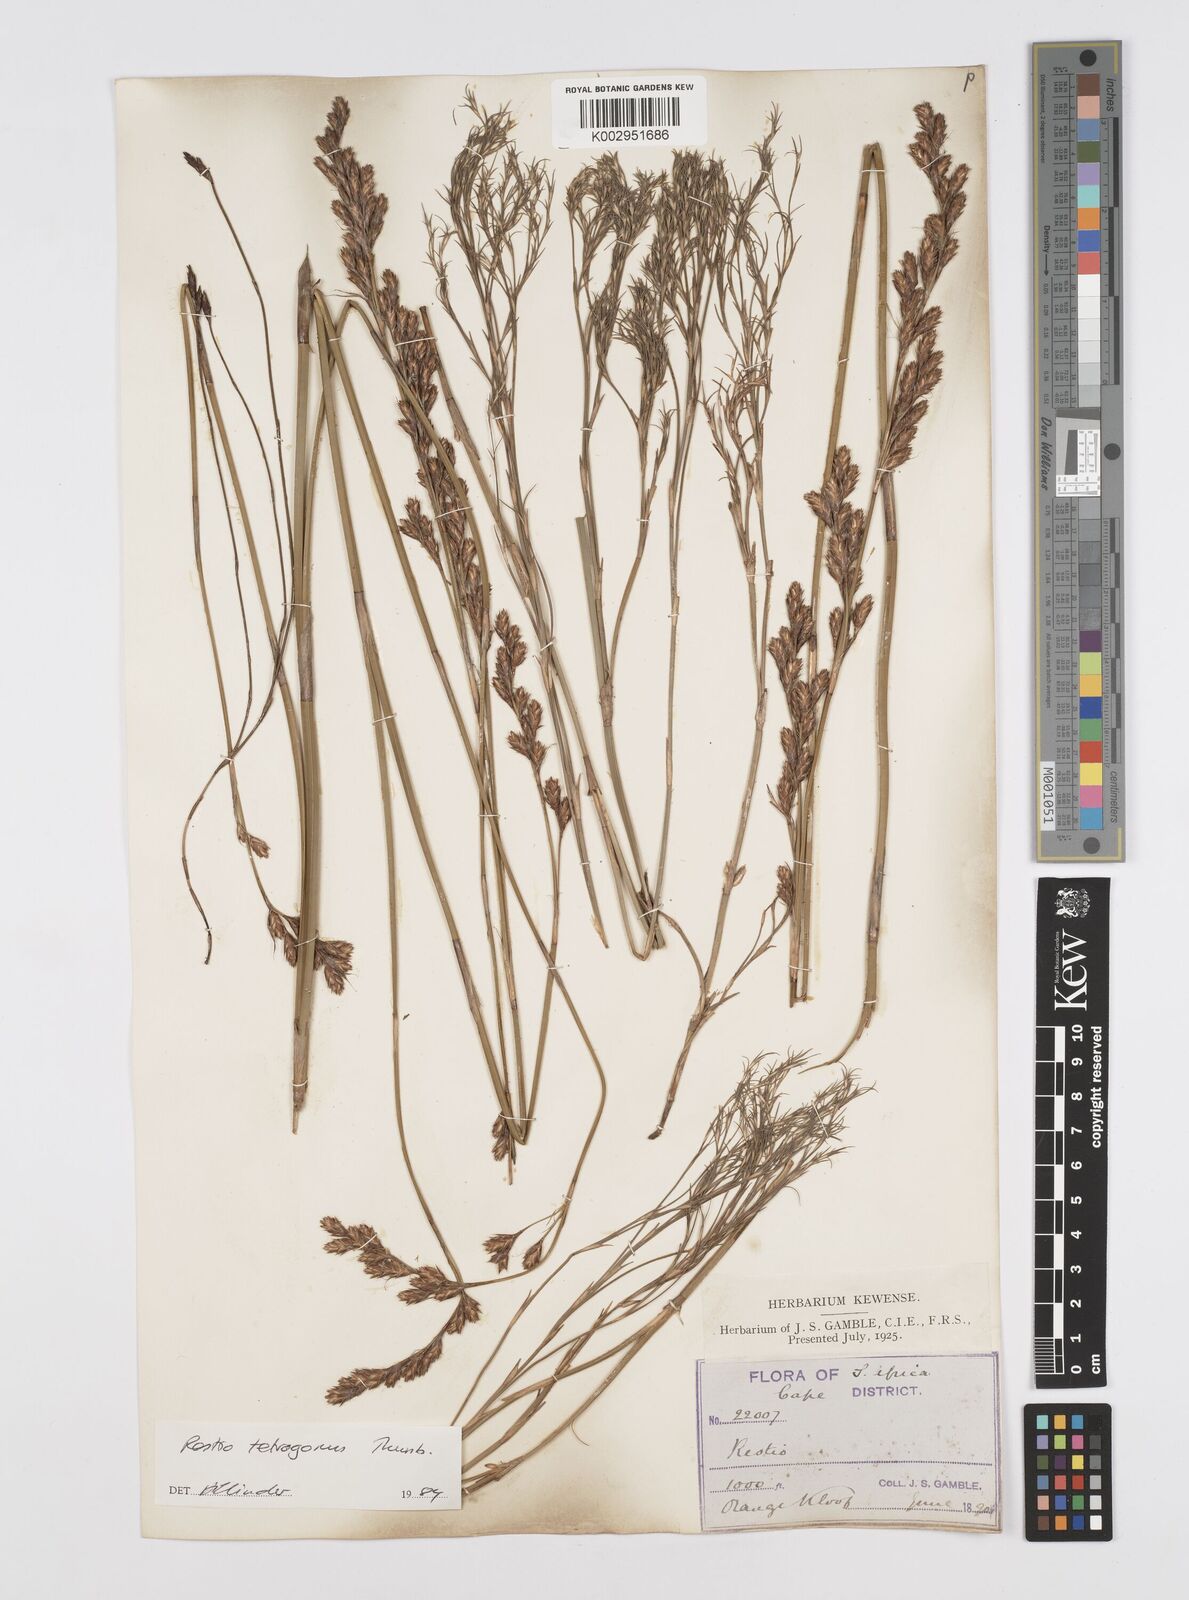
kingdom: Plantae
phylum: Tracheophyta
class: Liliopsida
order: Poales
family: Restionaceae
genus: Restio
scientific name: Restio tetragonus
